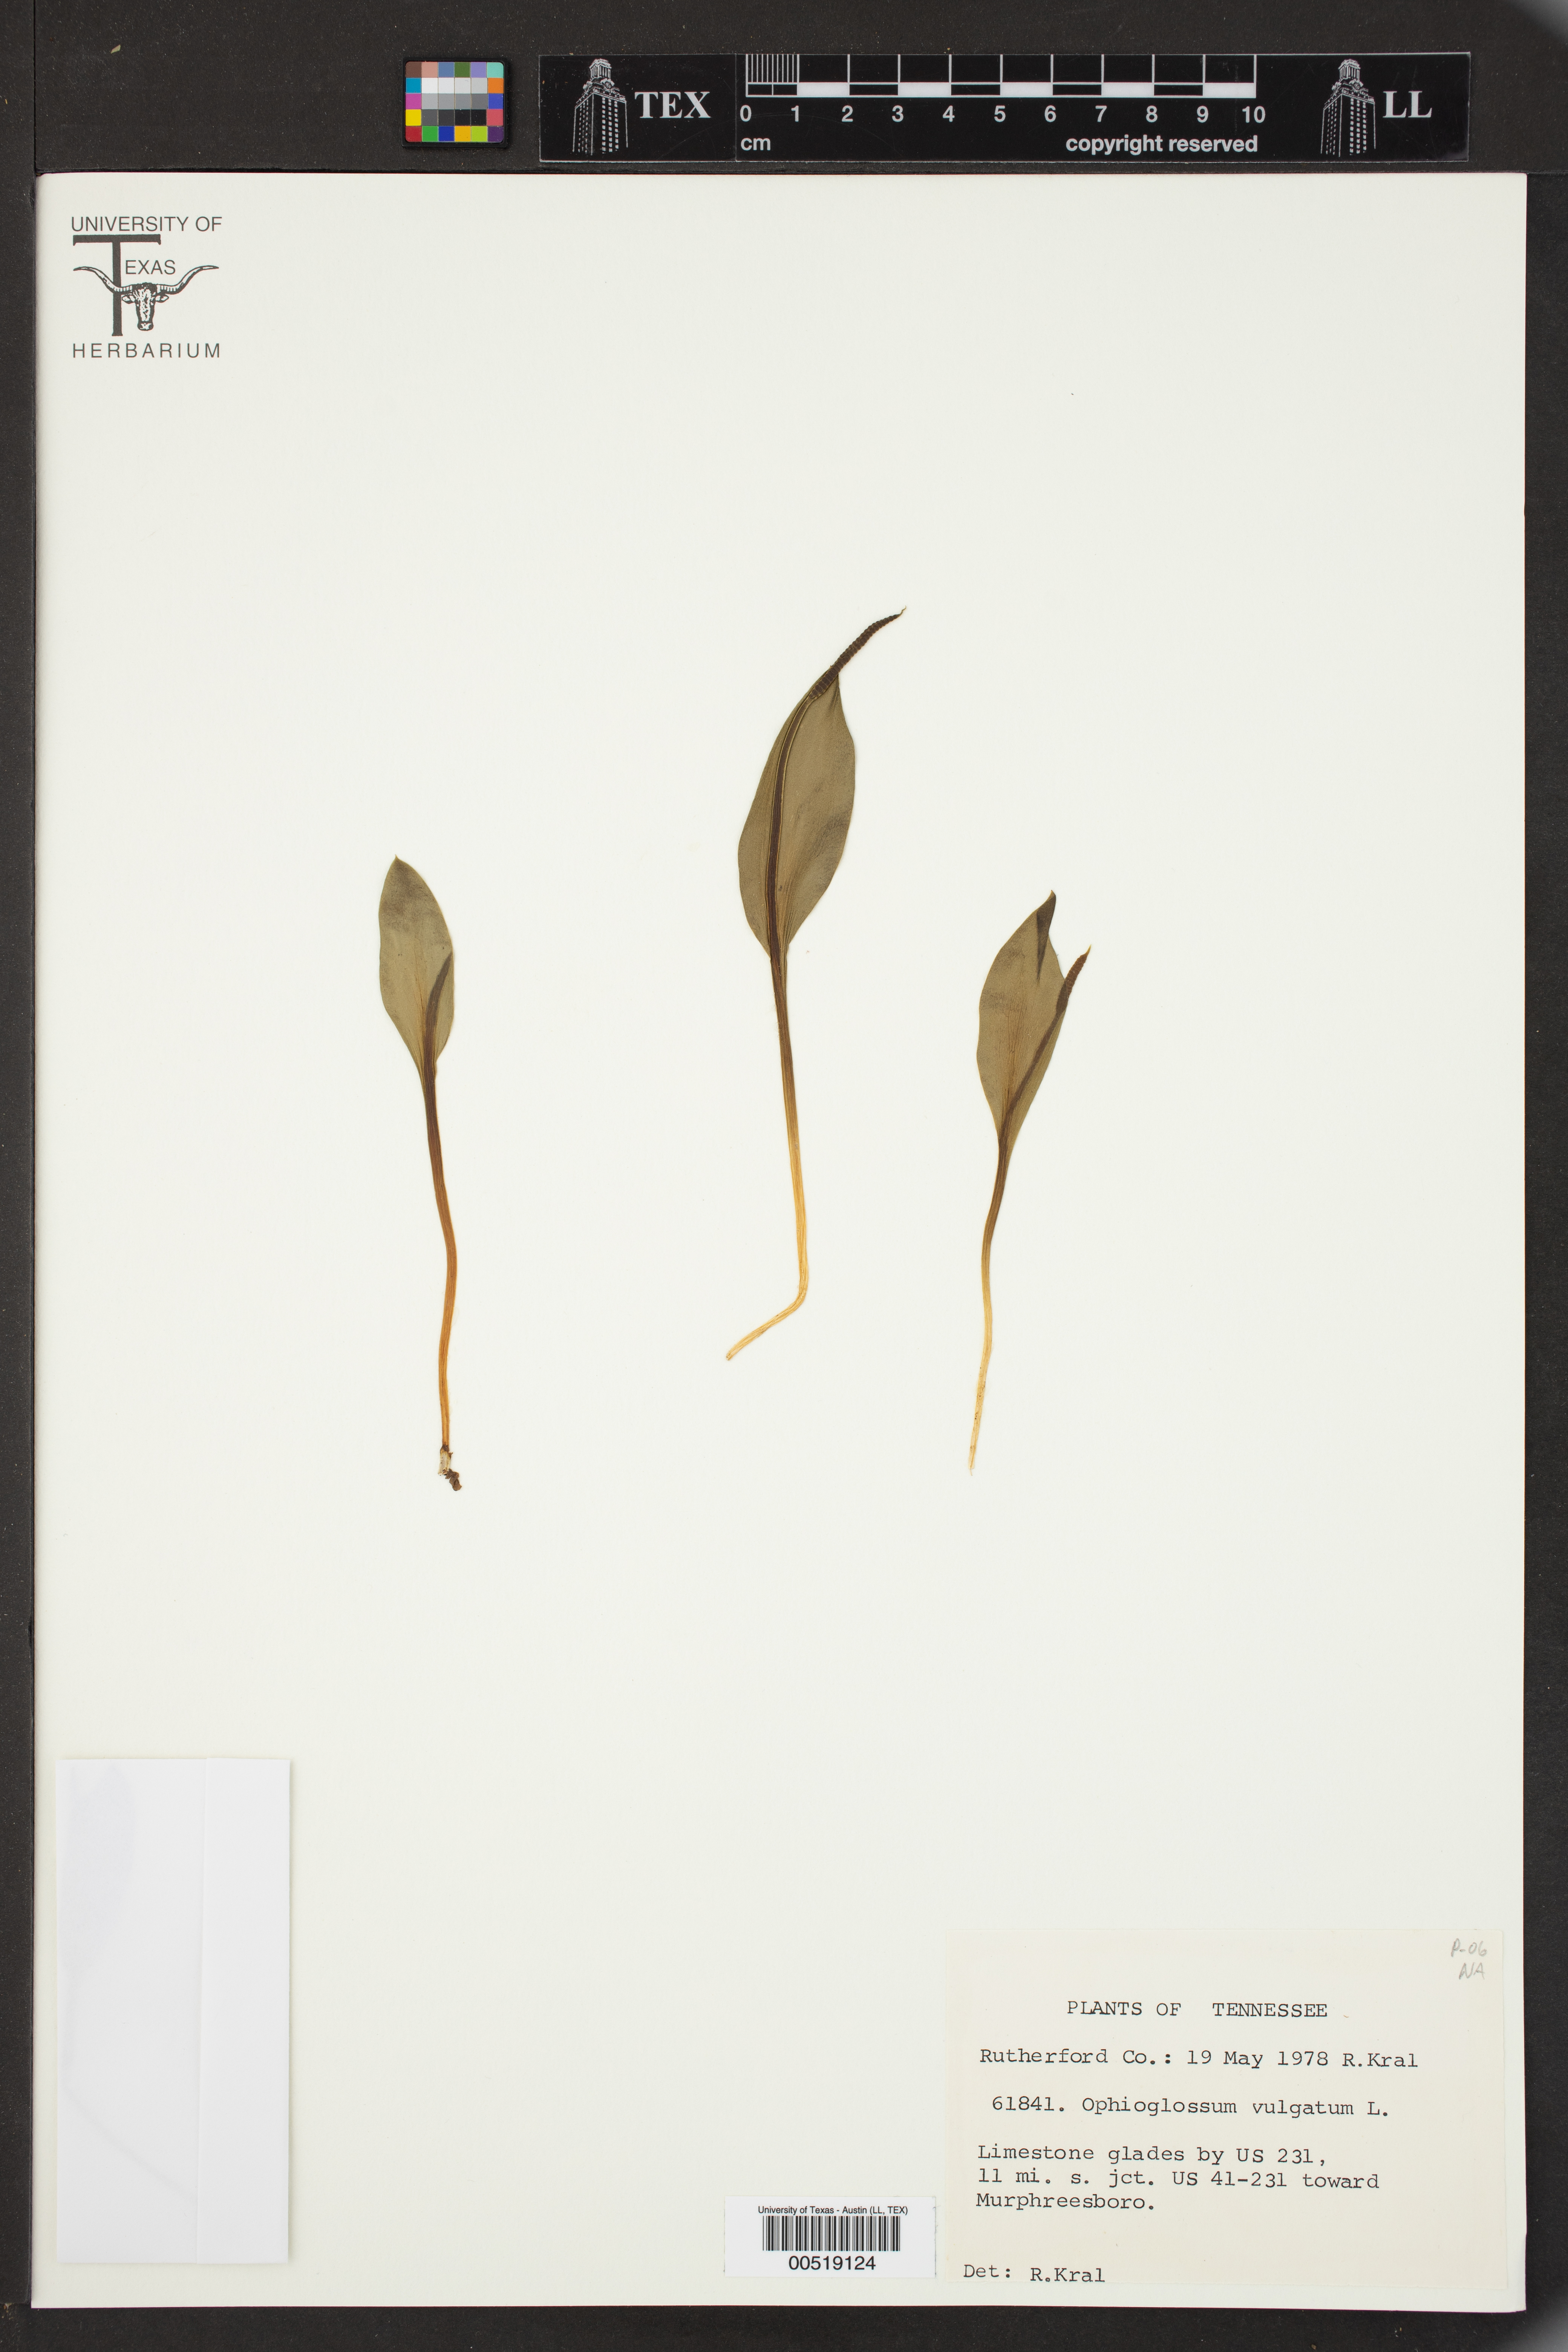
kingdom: Plantae
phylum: Tracheophyta
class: Polypodiopsida
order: Ophioglossales
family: Ophioglossaceae
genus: Ophioglossum
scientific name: Ophioglossum vulgatum
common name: Adder's-tongue
